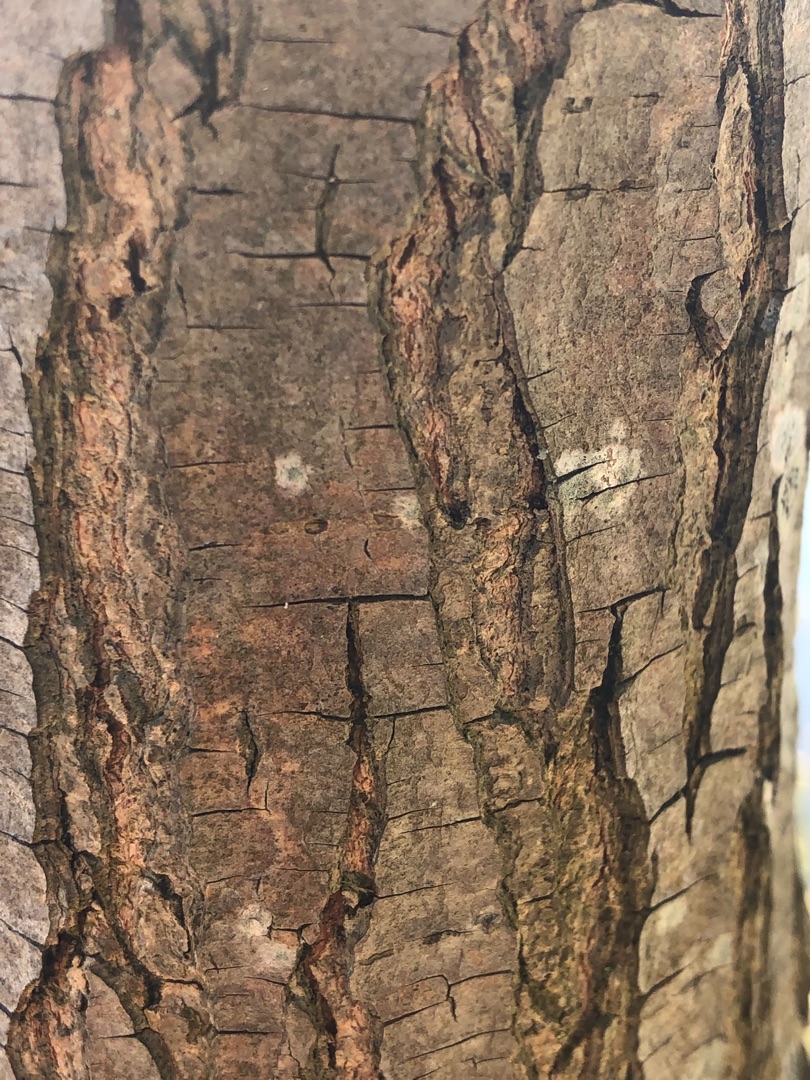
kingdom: Plantae
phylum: Tracheophyta
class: Magnoliopsida
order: Fagales
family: Betulaceae
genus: Carpinus
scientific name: Carpinus betulus
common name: Avnbøg
